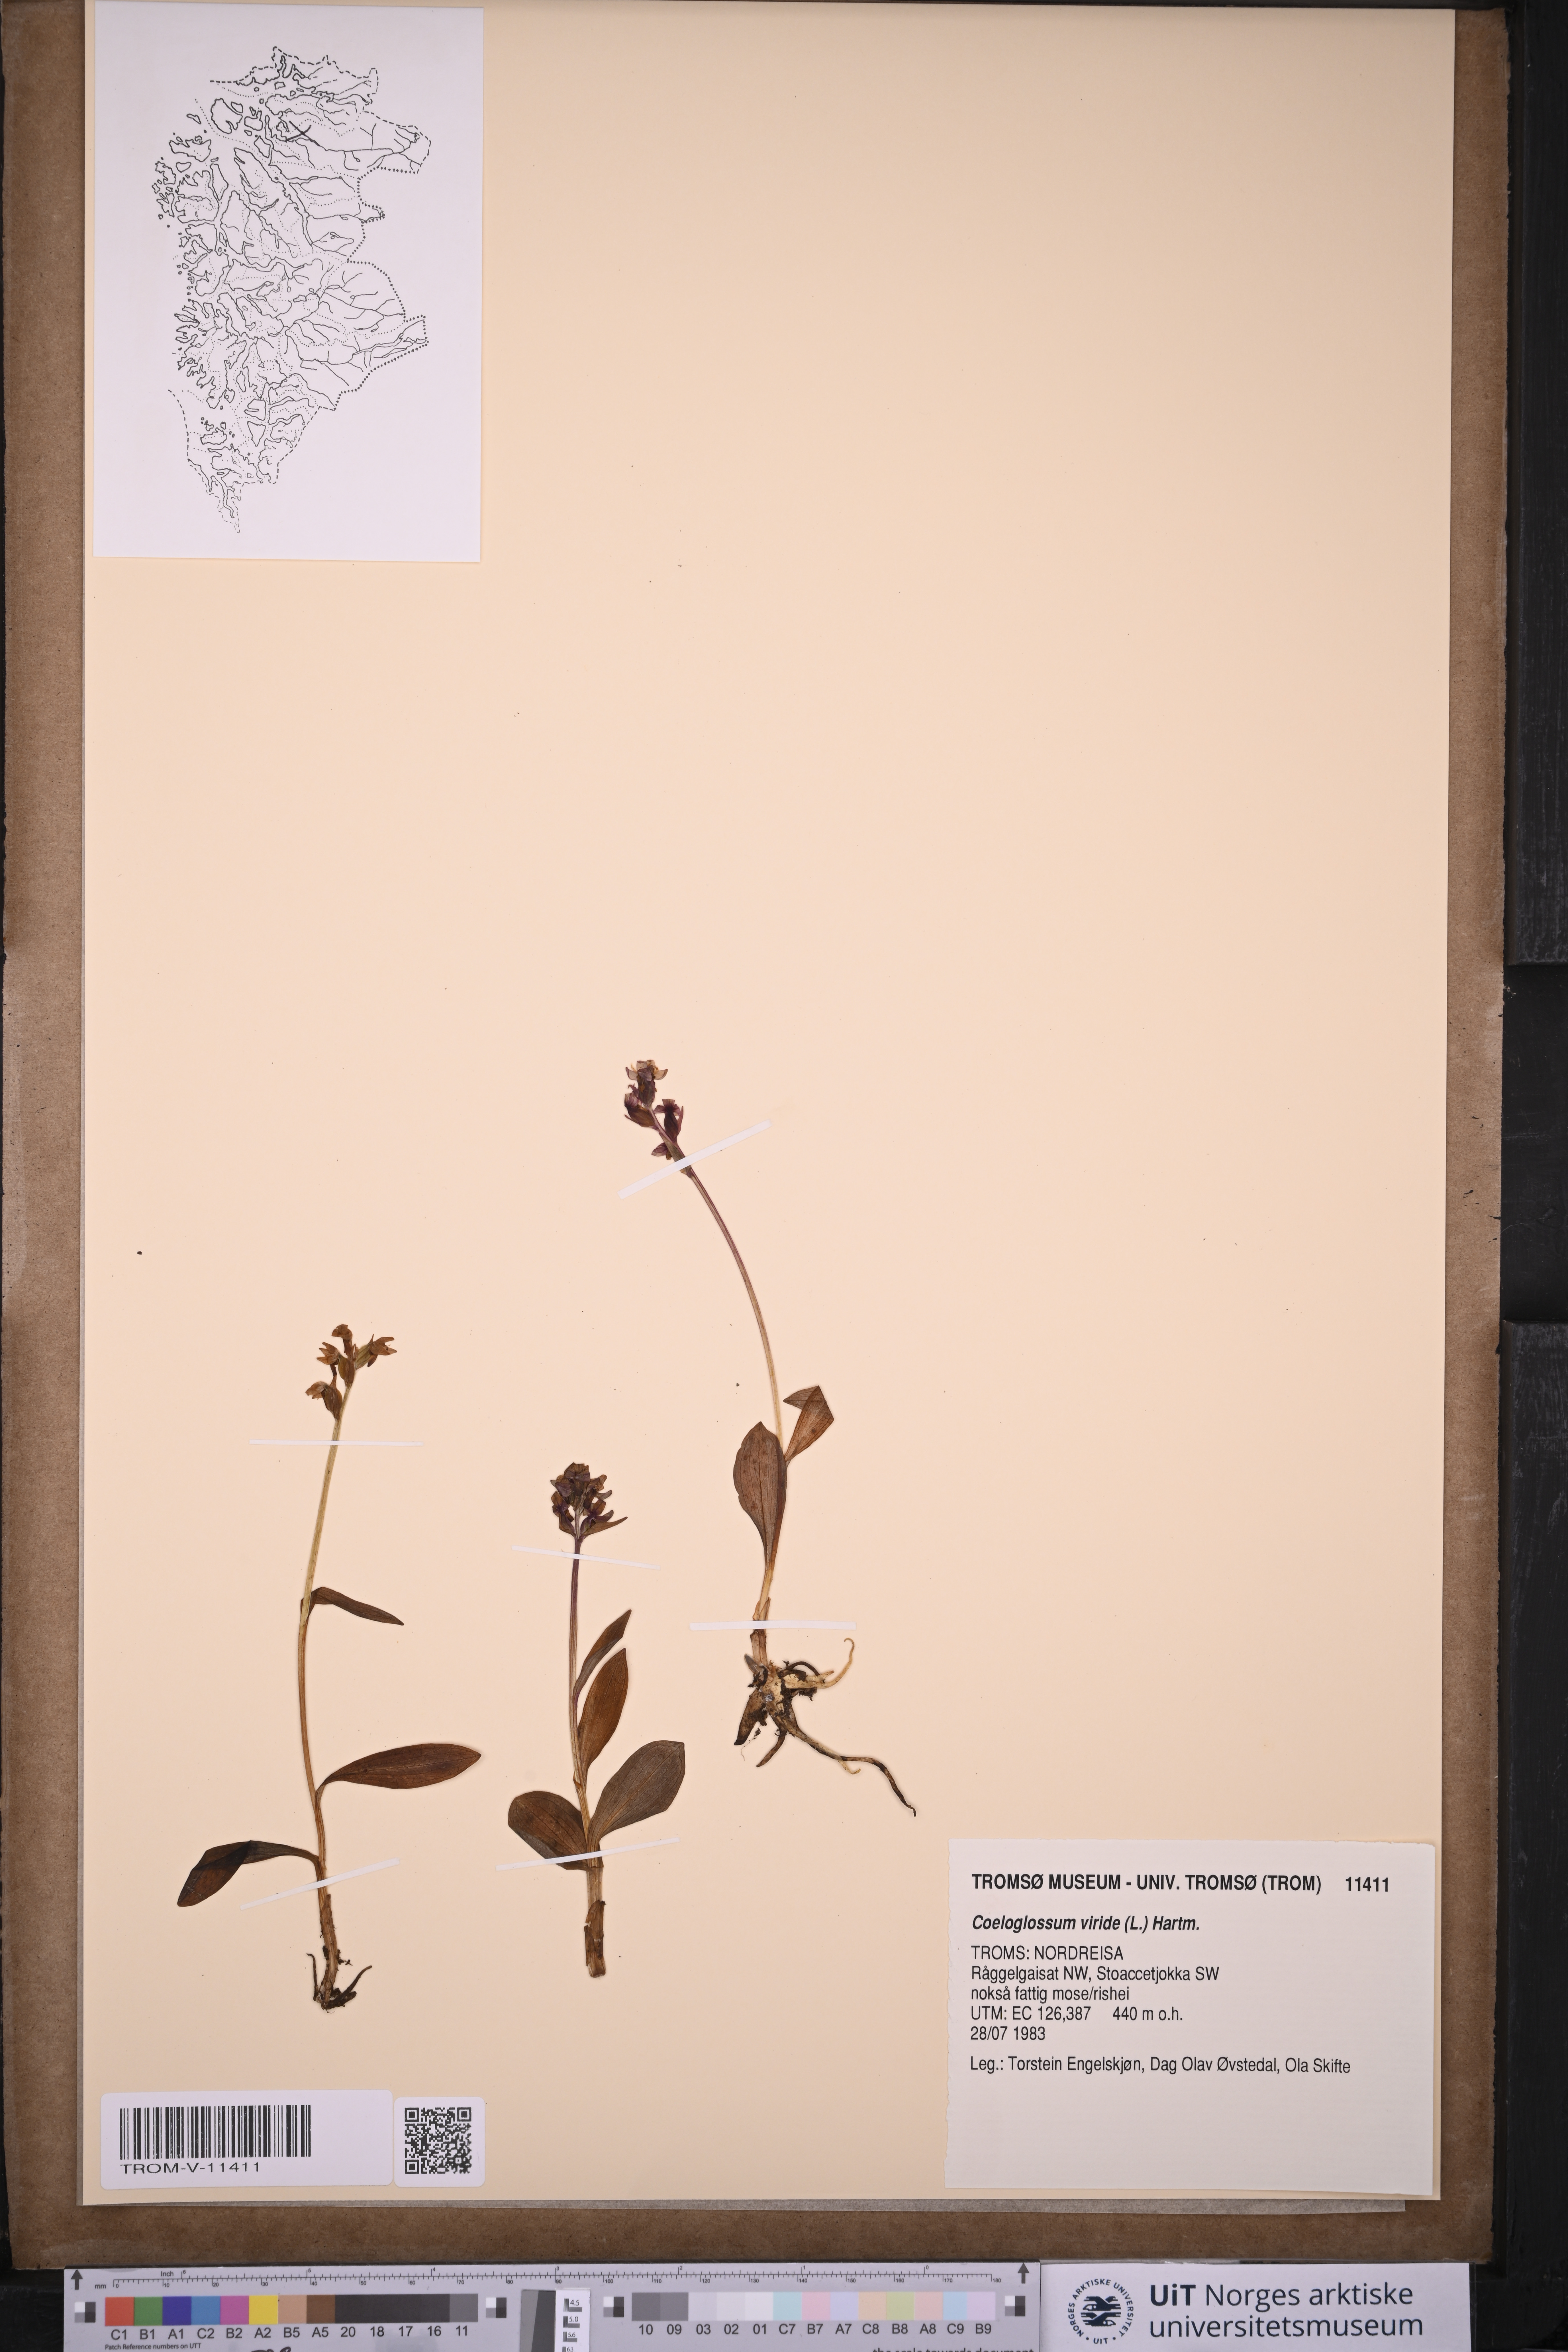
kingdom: Plantae
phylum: Tracheophyta
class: Liliopsida
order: Asparagales
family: Orchidaceae
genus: Dactylorhiza
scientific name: Dactylorhiza viridis
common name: Longbract frog orchid
